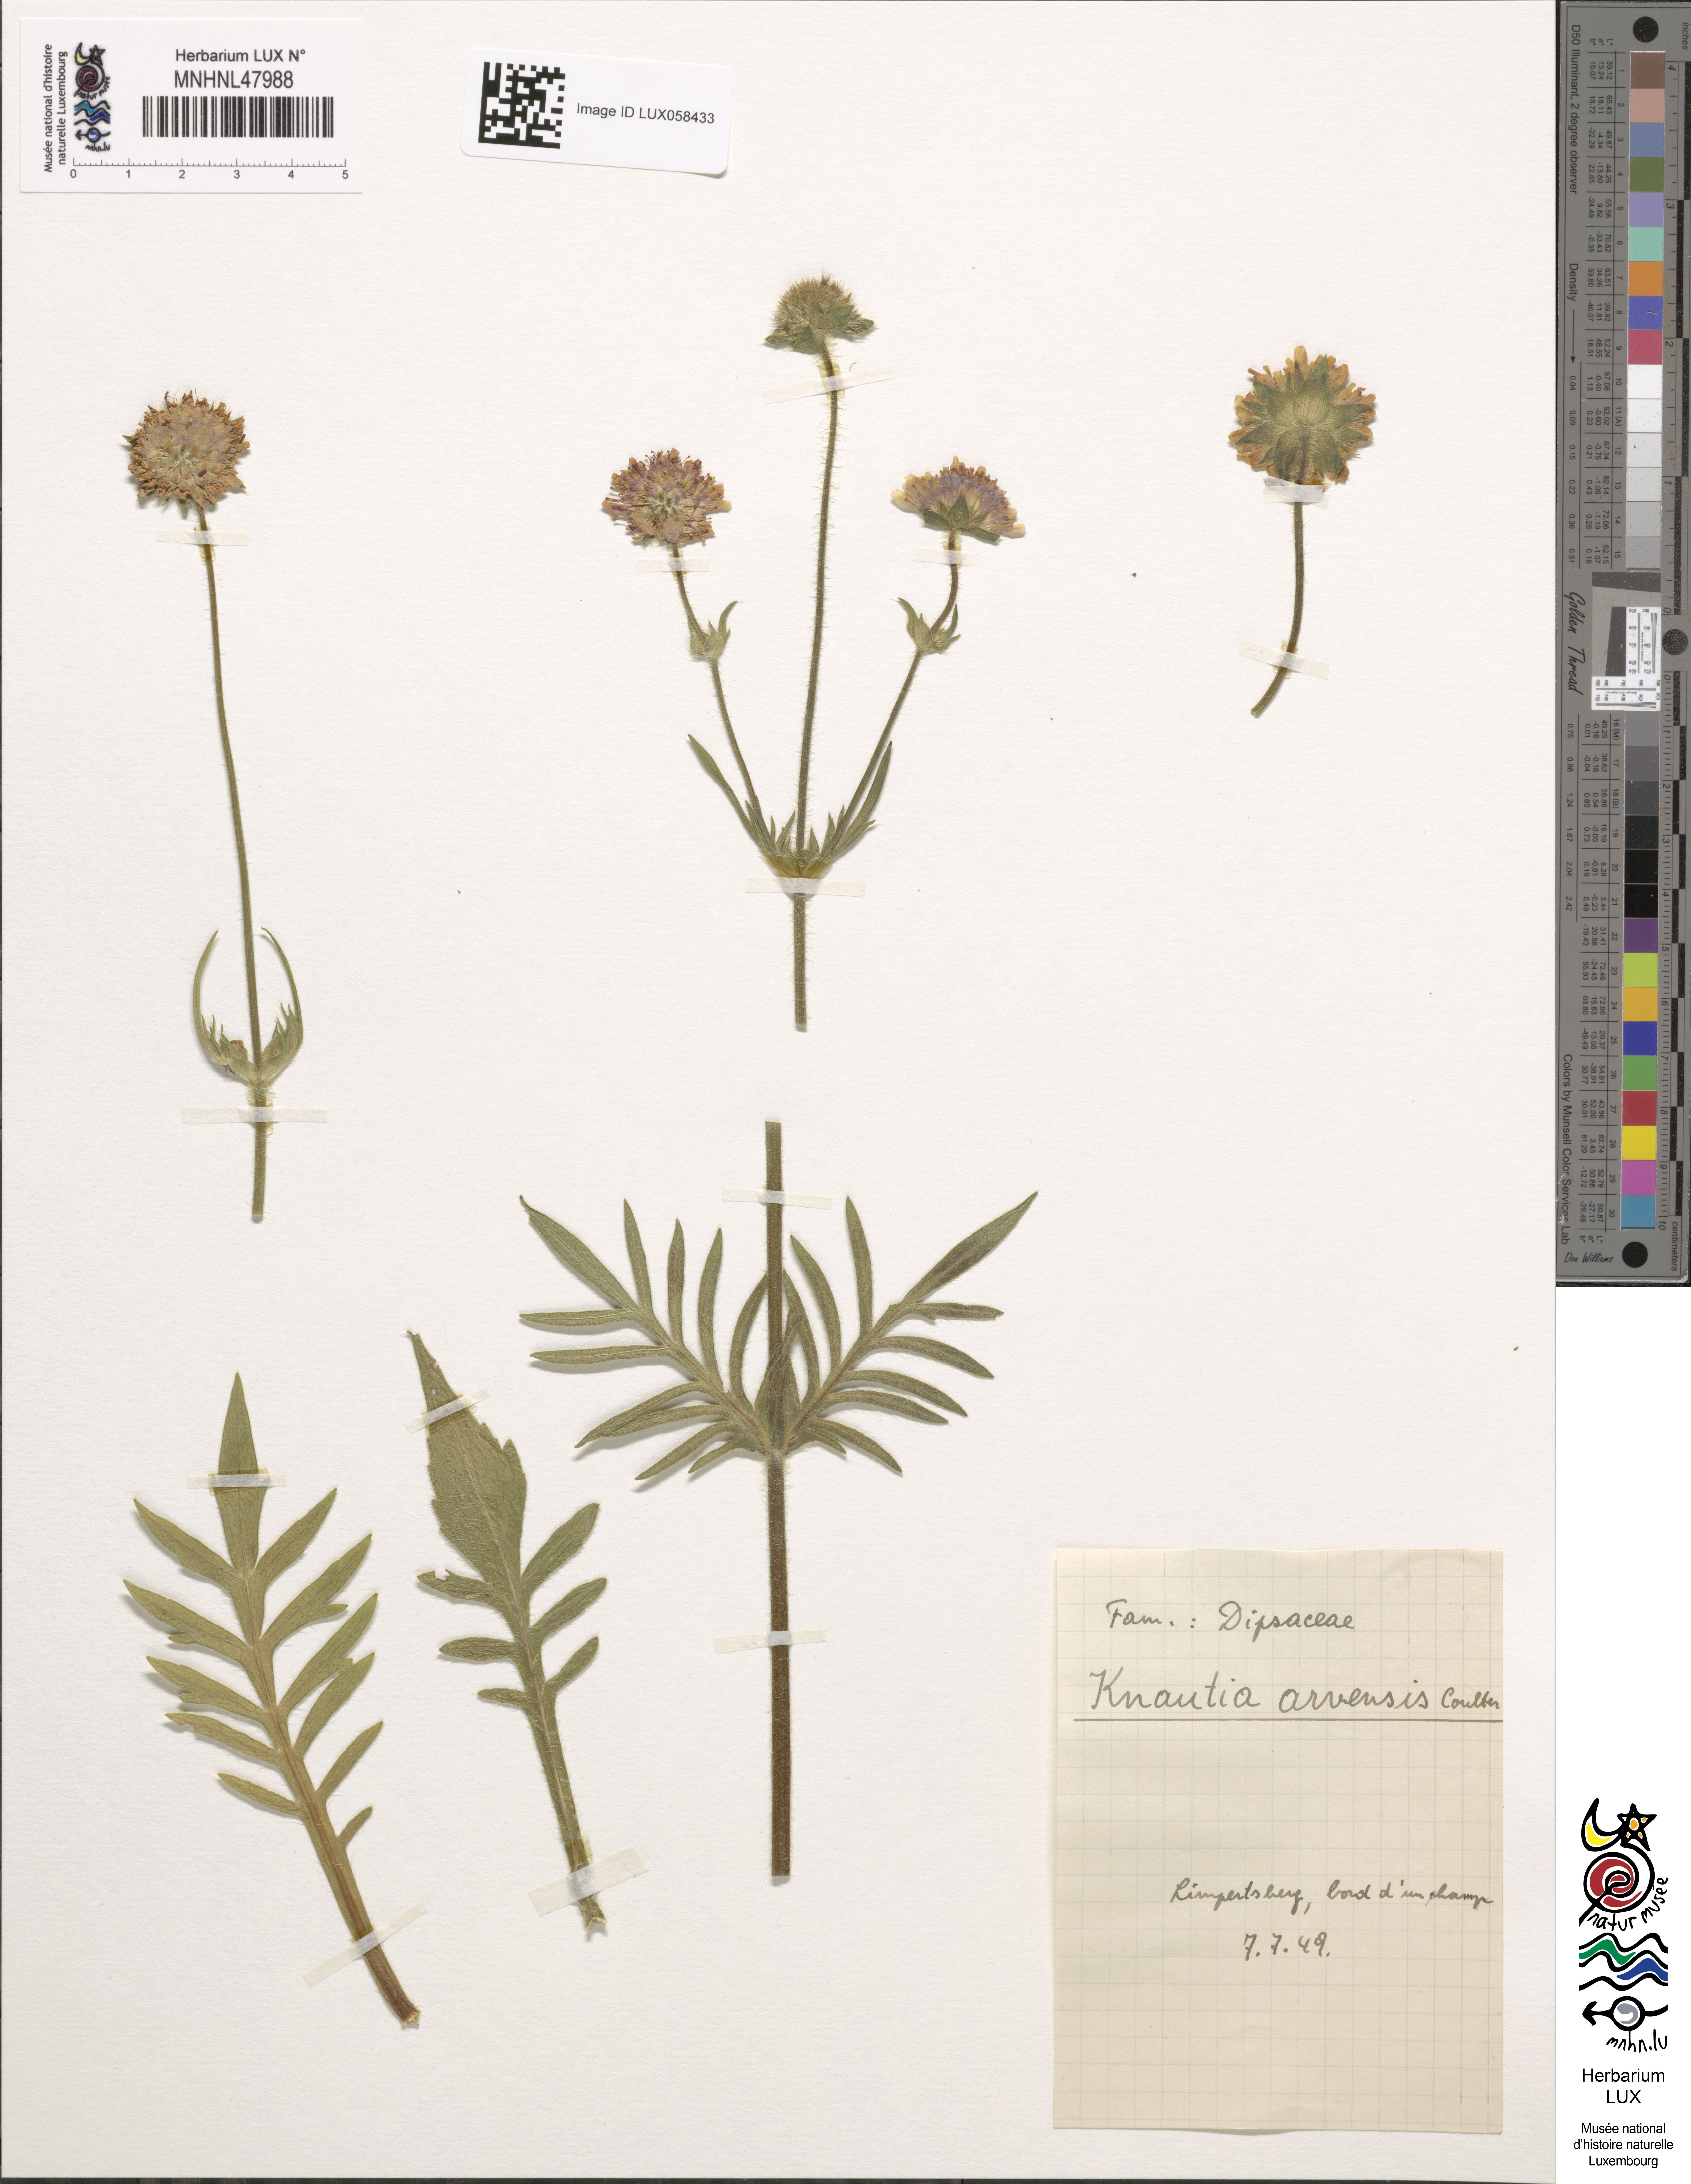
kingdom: Plantae
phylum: Tracheophyta
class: Magnoliopsida
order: Dipsacales
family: Caprifoliaceae
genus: Knautia
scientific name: Knautia arvensis
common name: Field scabiosa
